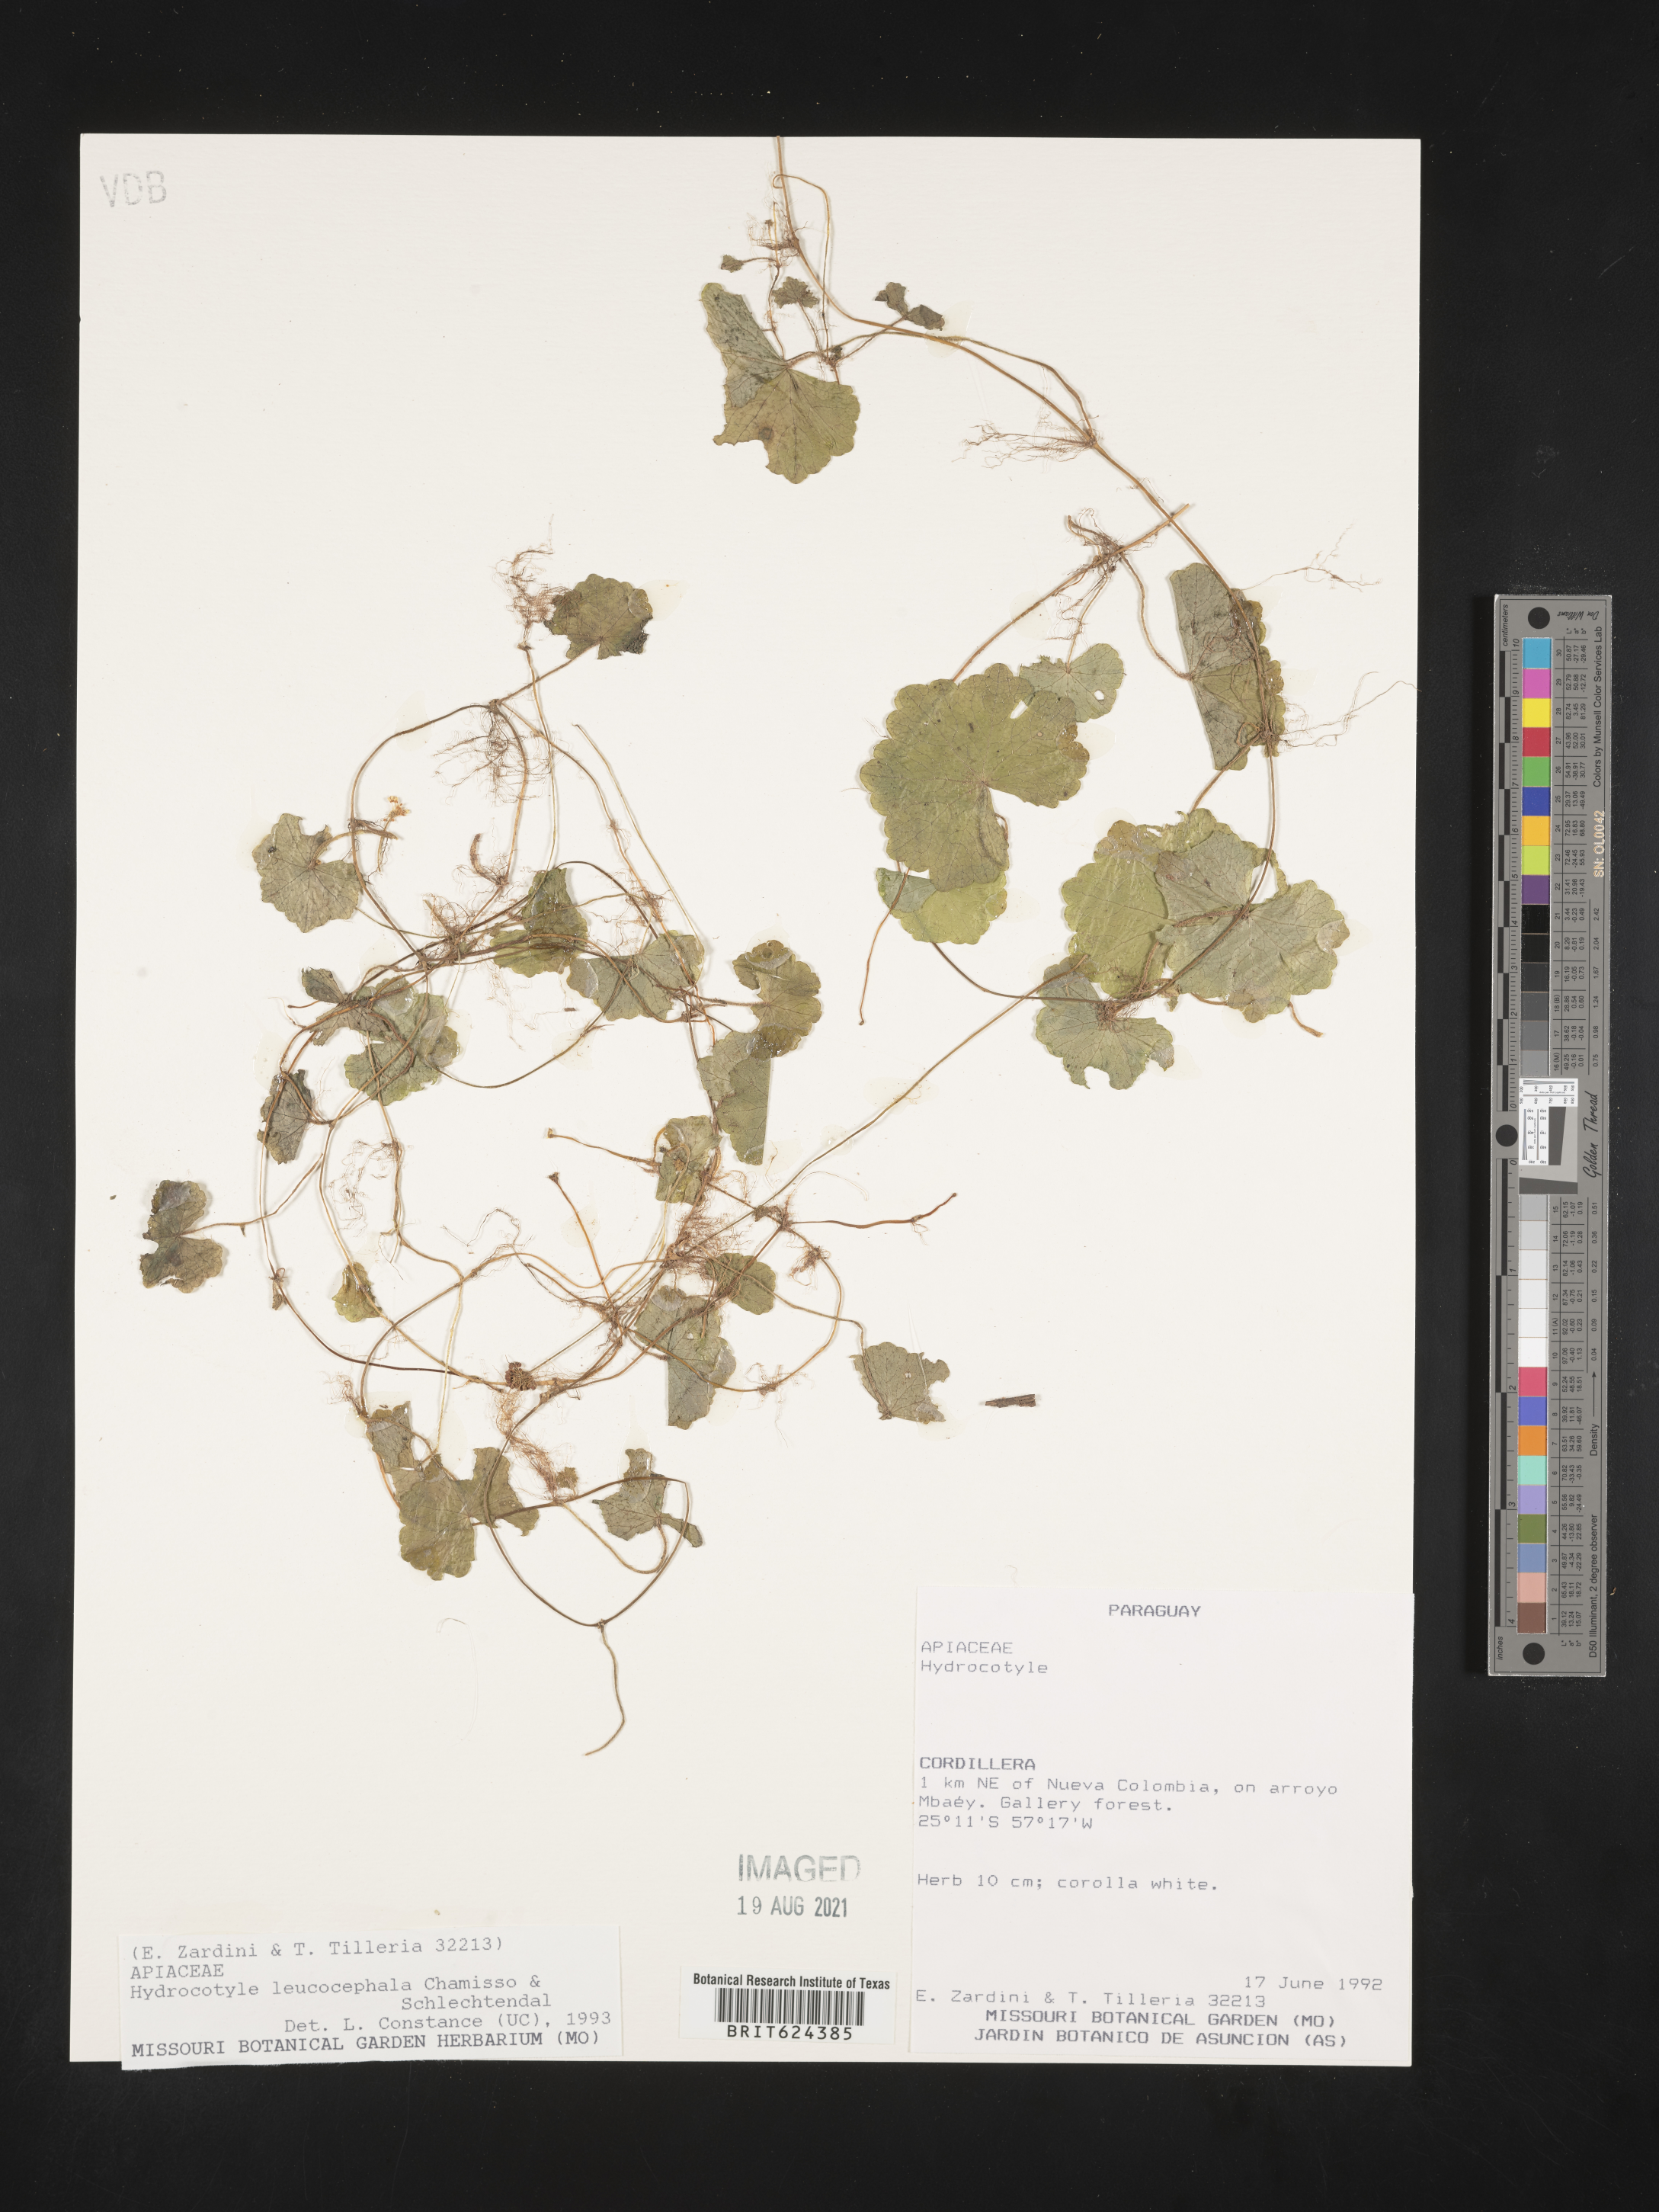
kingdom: Plantae
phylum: Tracheophyta
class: Magnoliopsida
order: Apiales
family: Araliaceae
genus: Hydrocotyle
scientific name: Hydrocotyle leucocephala
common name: Brazilian pennywort
